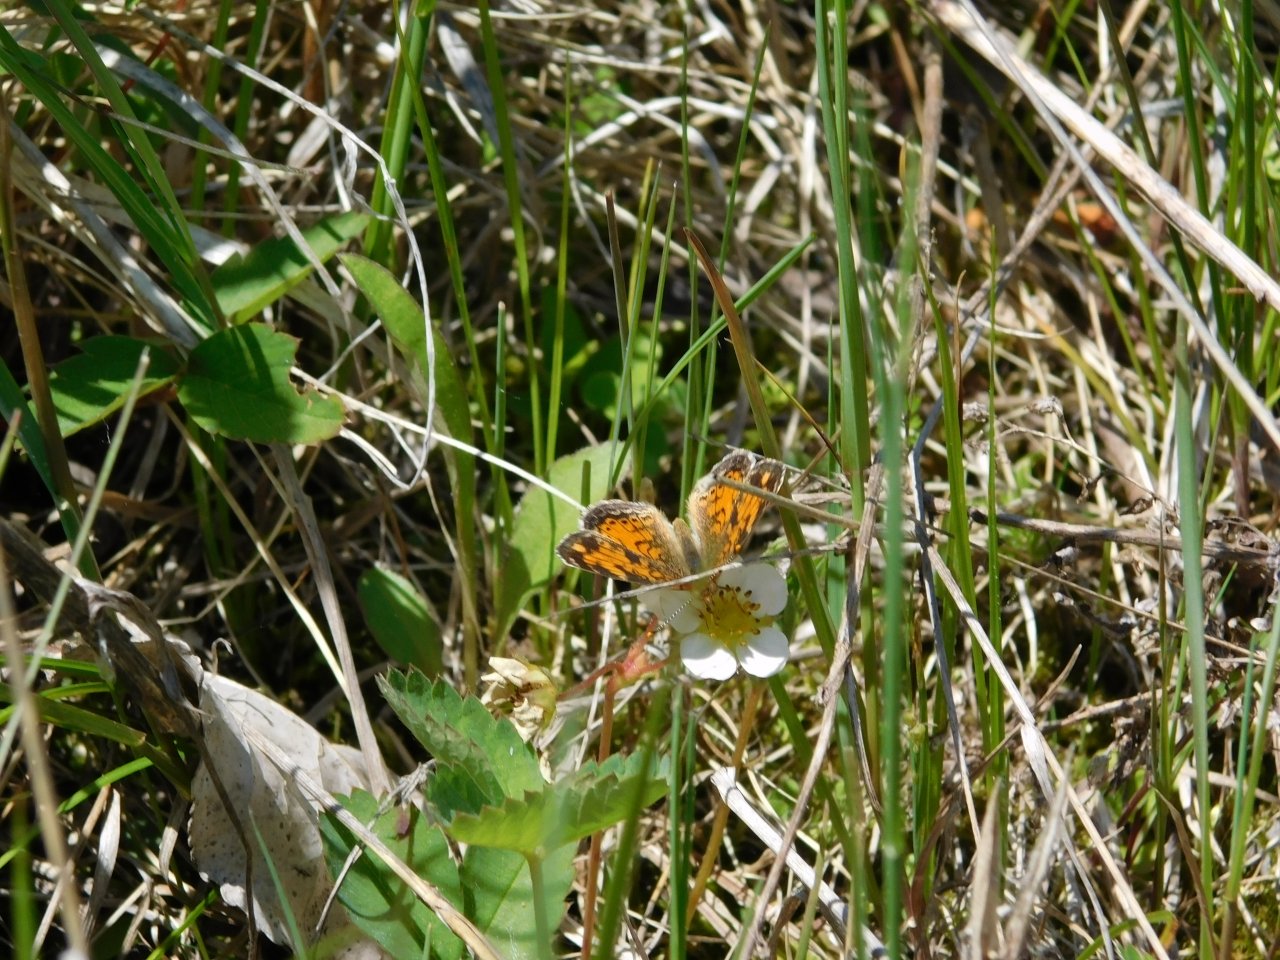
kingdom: Animalia
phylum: Arthropoda
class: Insecta
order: Lepidoptera
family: Nymphalidae
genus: Phyciodes
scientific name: Phyciodes tharos
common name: Northern Crescent
